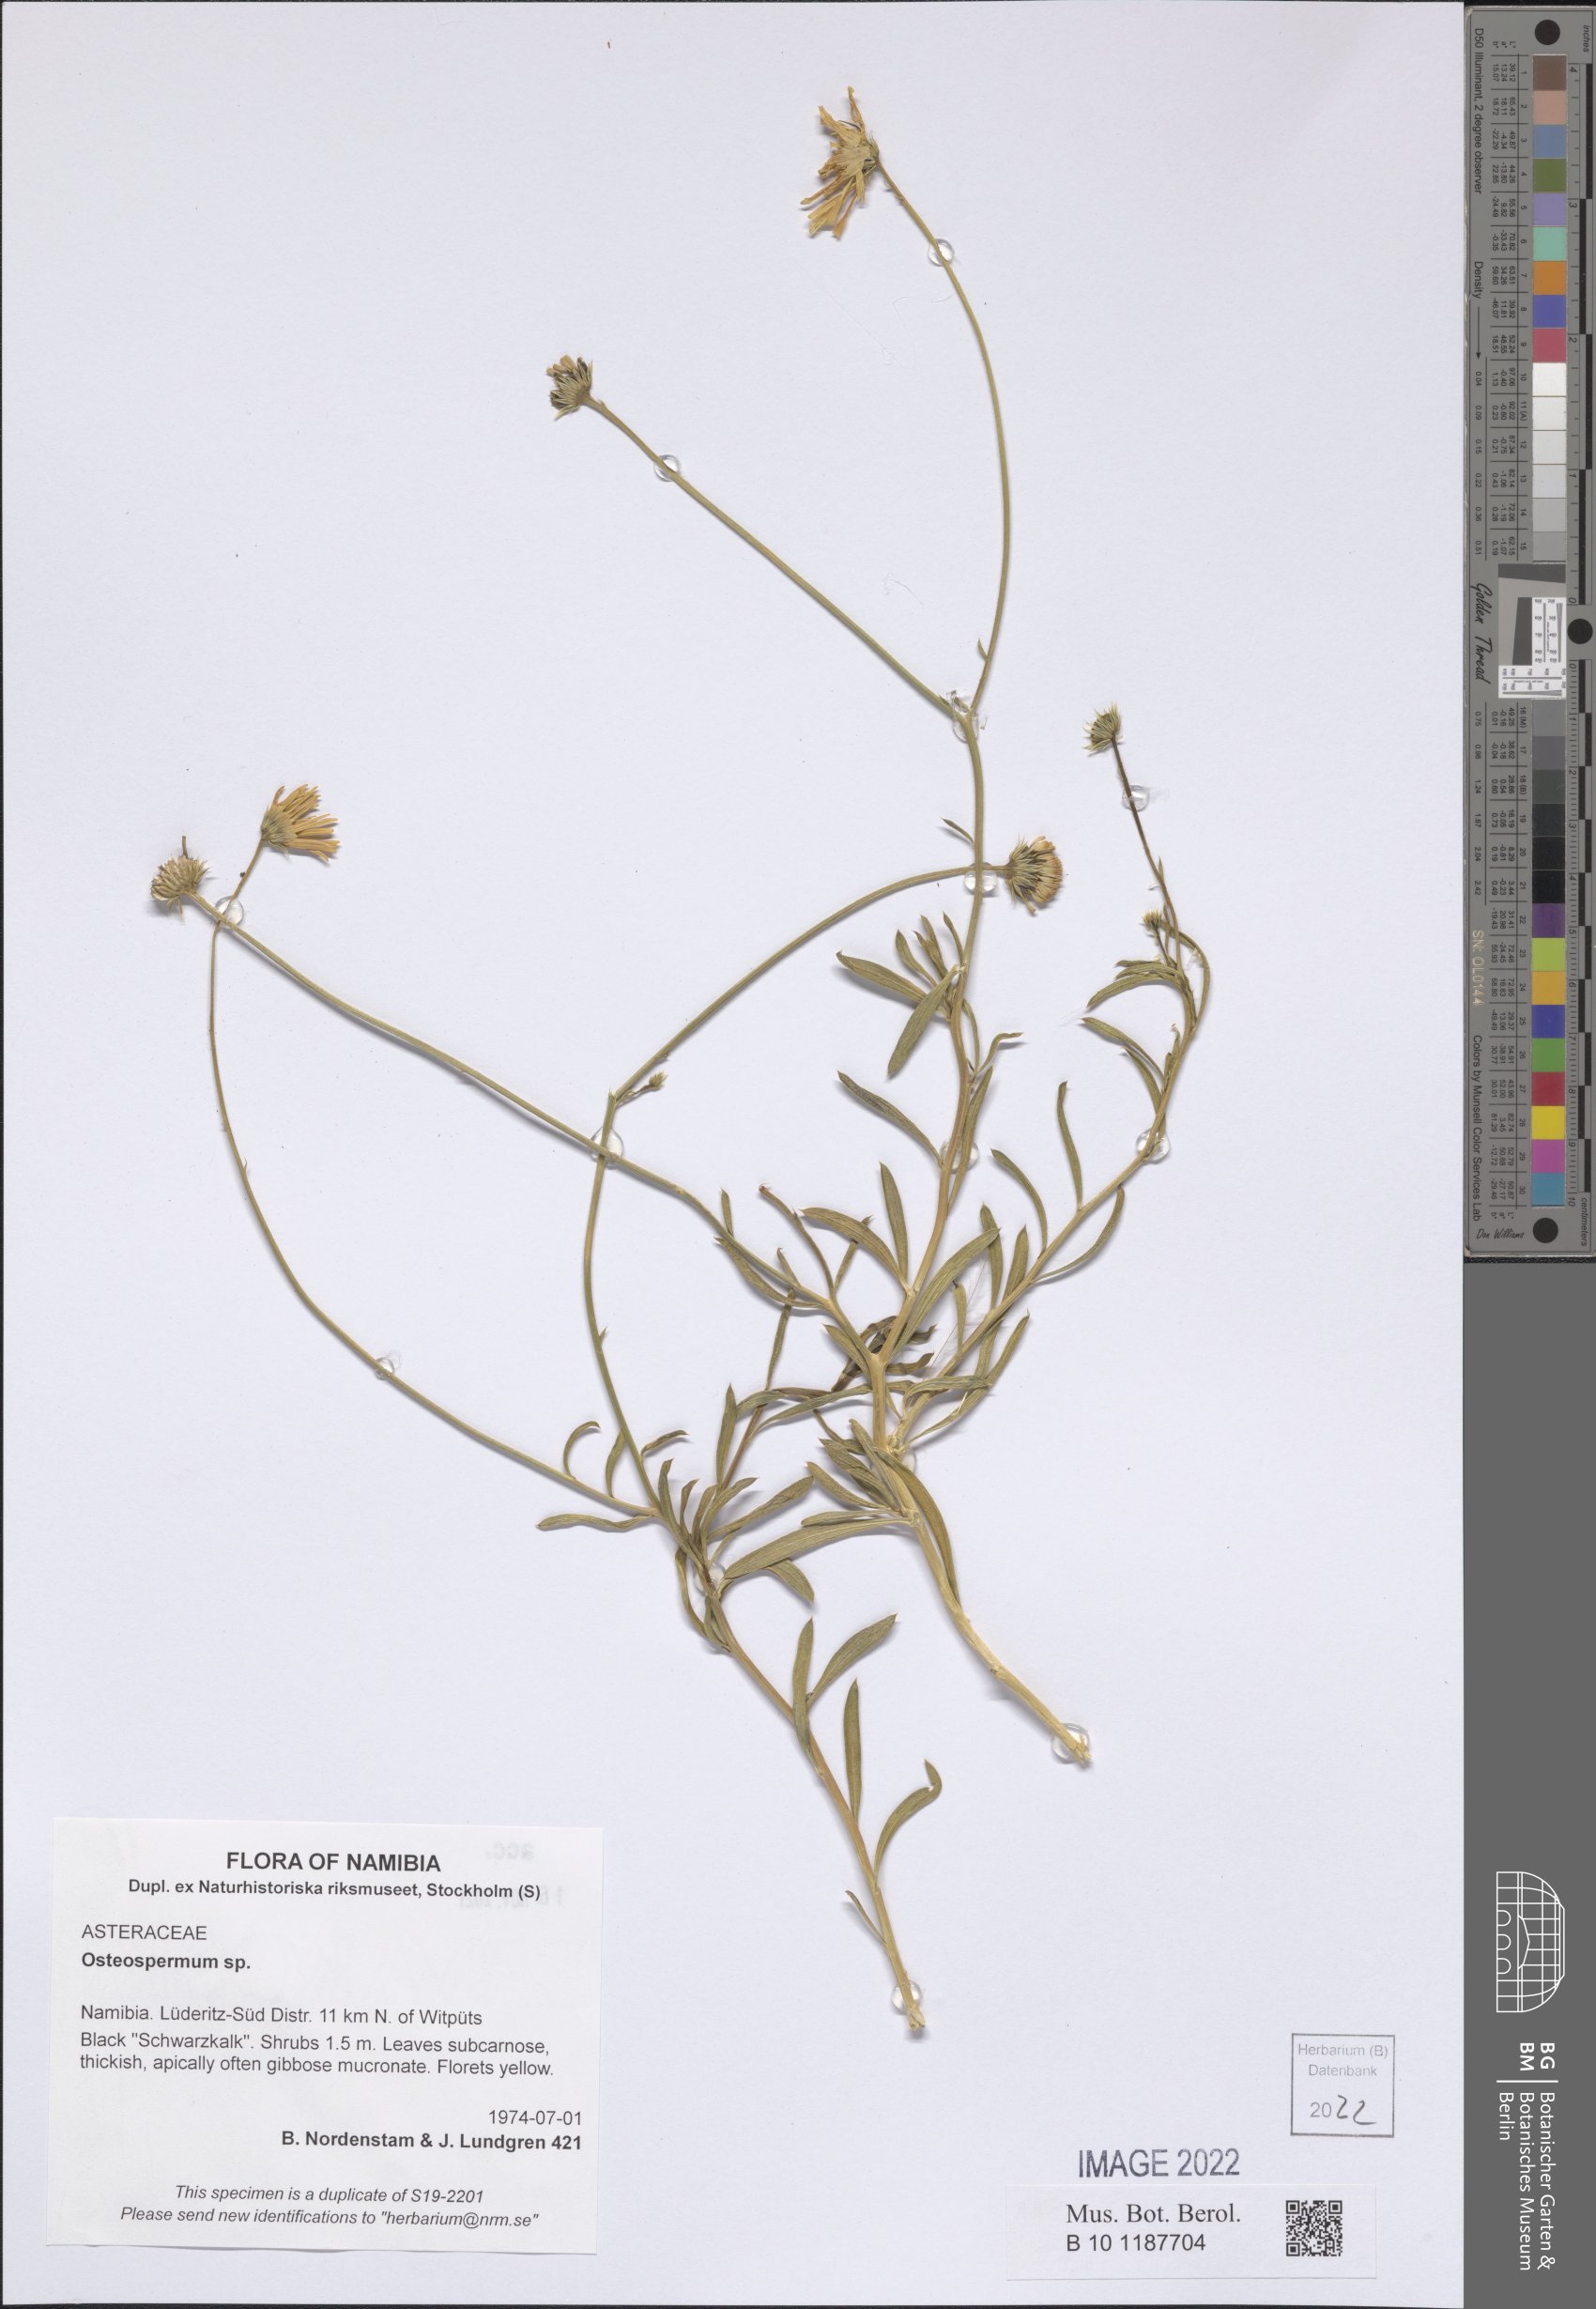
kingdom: Plantae
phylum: Tracheophyta
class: Magnoliopsida
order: Asterales
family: Asteraceae
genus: Osteospermum
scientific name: Osteospermum
